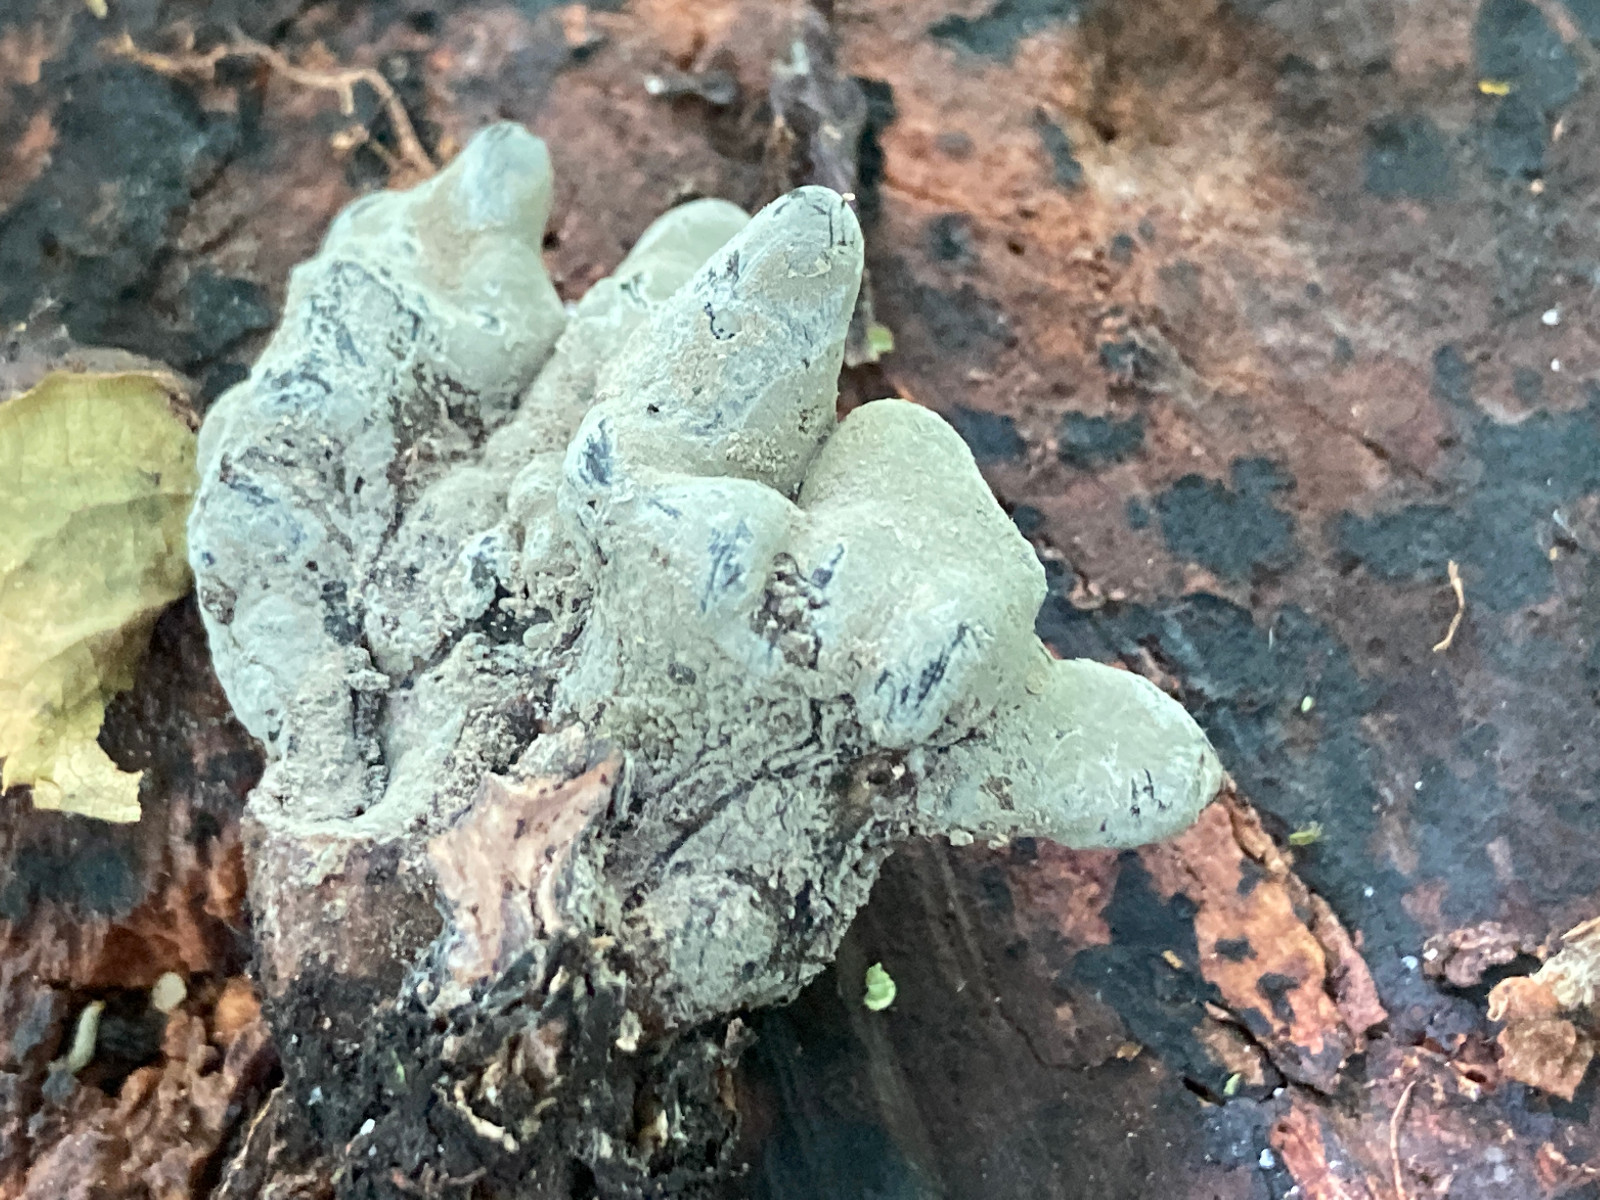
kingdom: Fungi
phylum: Ascomycota
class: Sordariomycetes
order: Xylariales
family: Xylariaceae
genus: Xylaria
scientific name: Xylaria longipes
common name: slank stødsvamp
